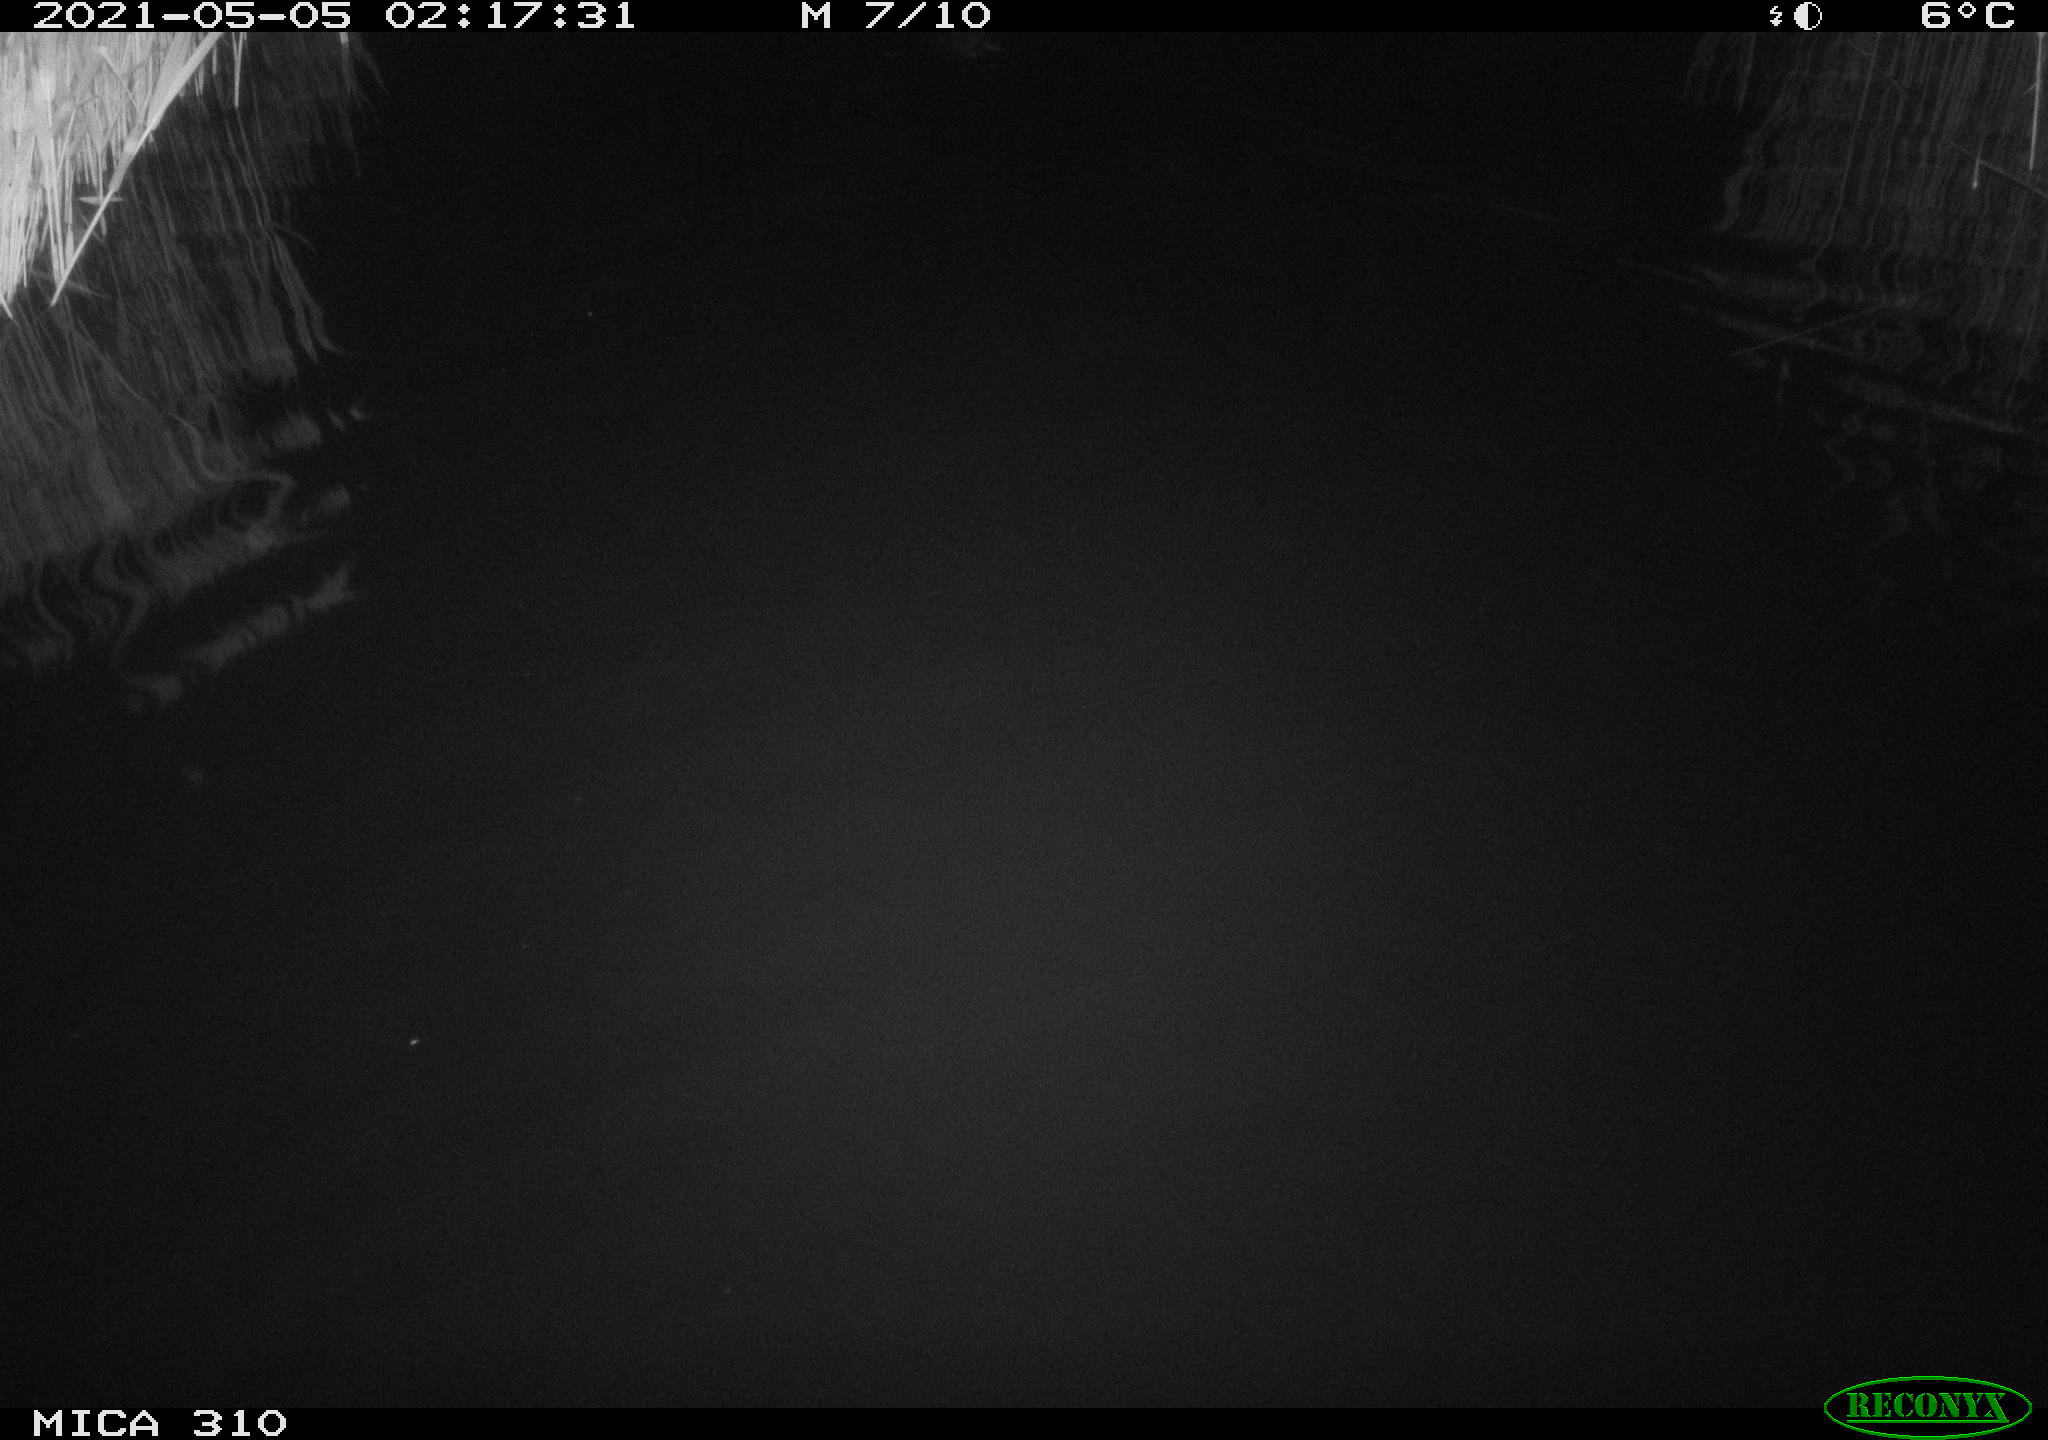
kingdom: Animalia
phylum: Chordata
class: Aves
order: Anseriformes
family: Anatidae
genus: Anas
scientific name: Anas platyrhynchos
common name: Mallard
